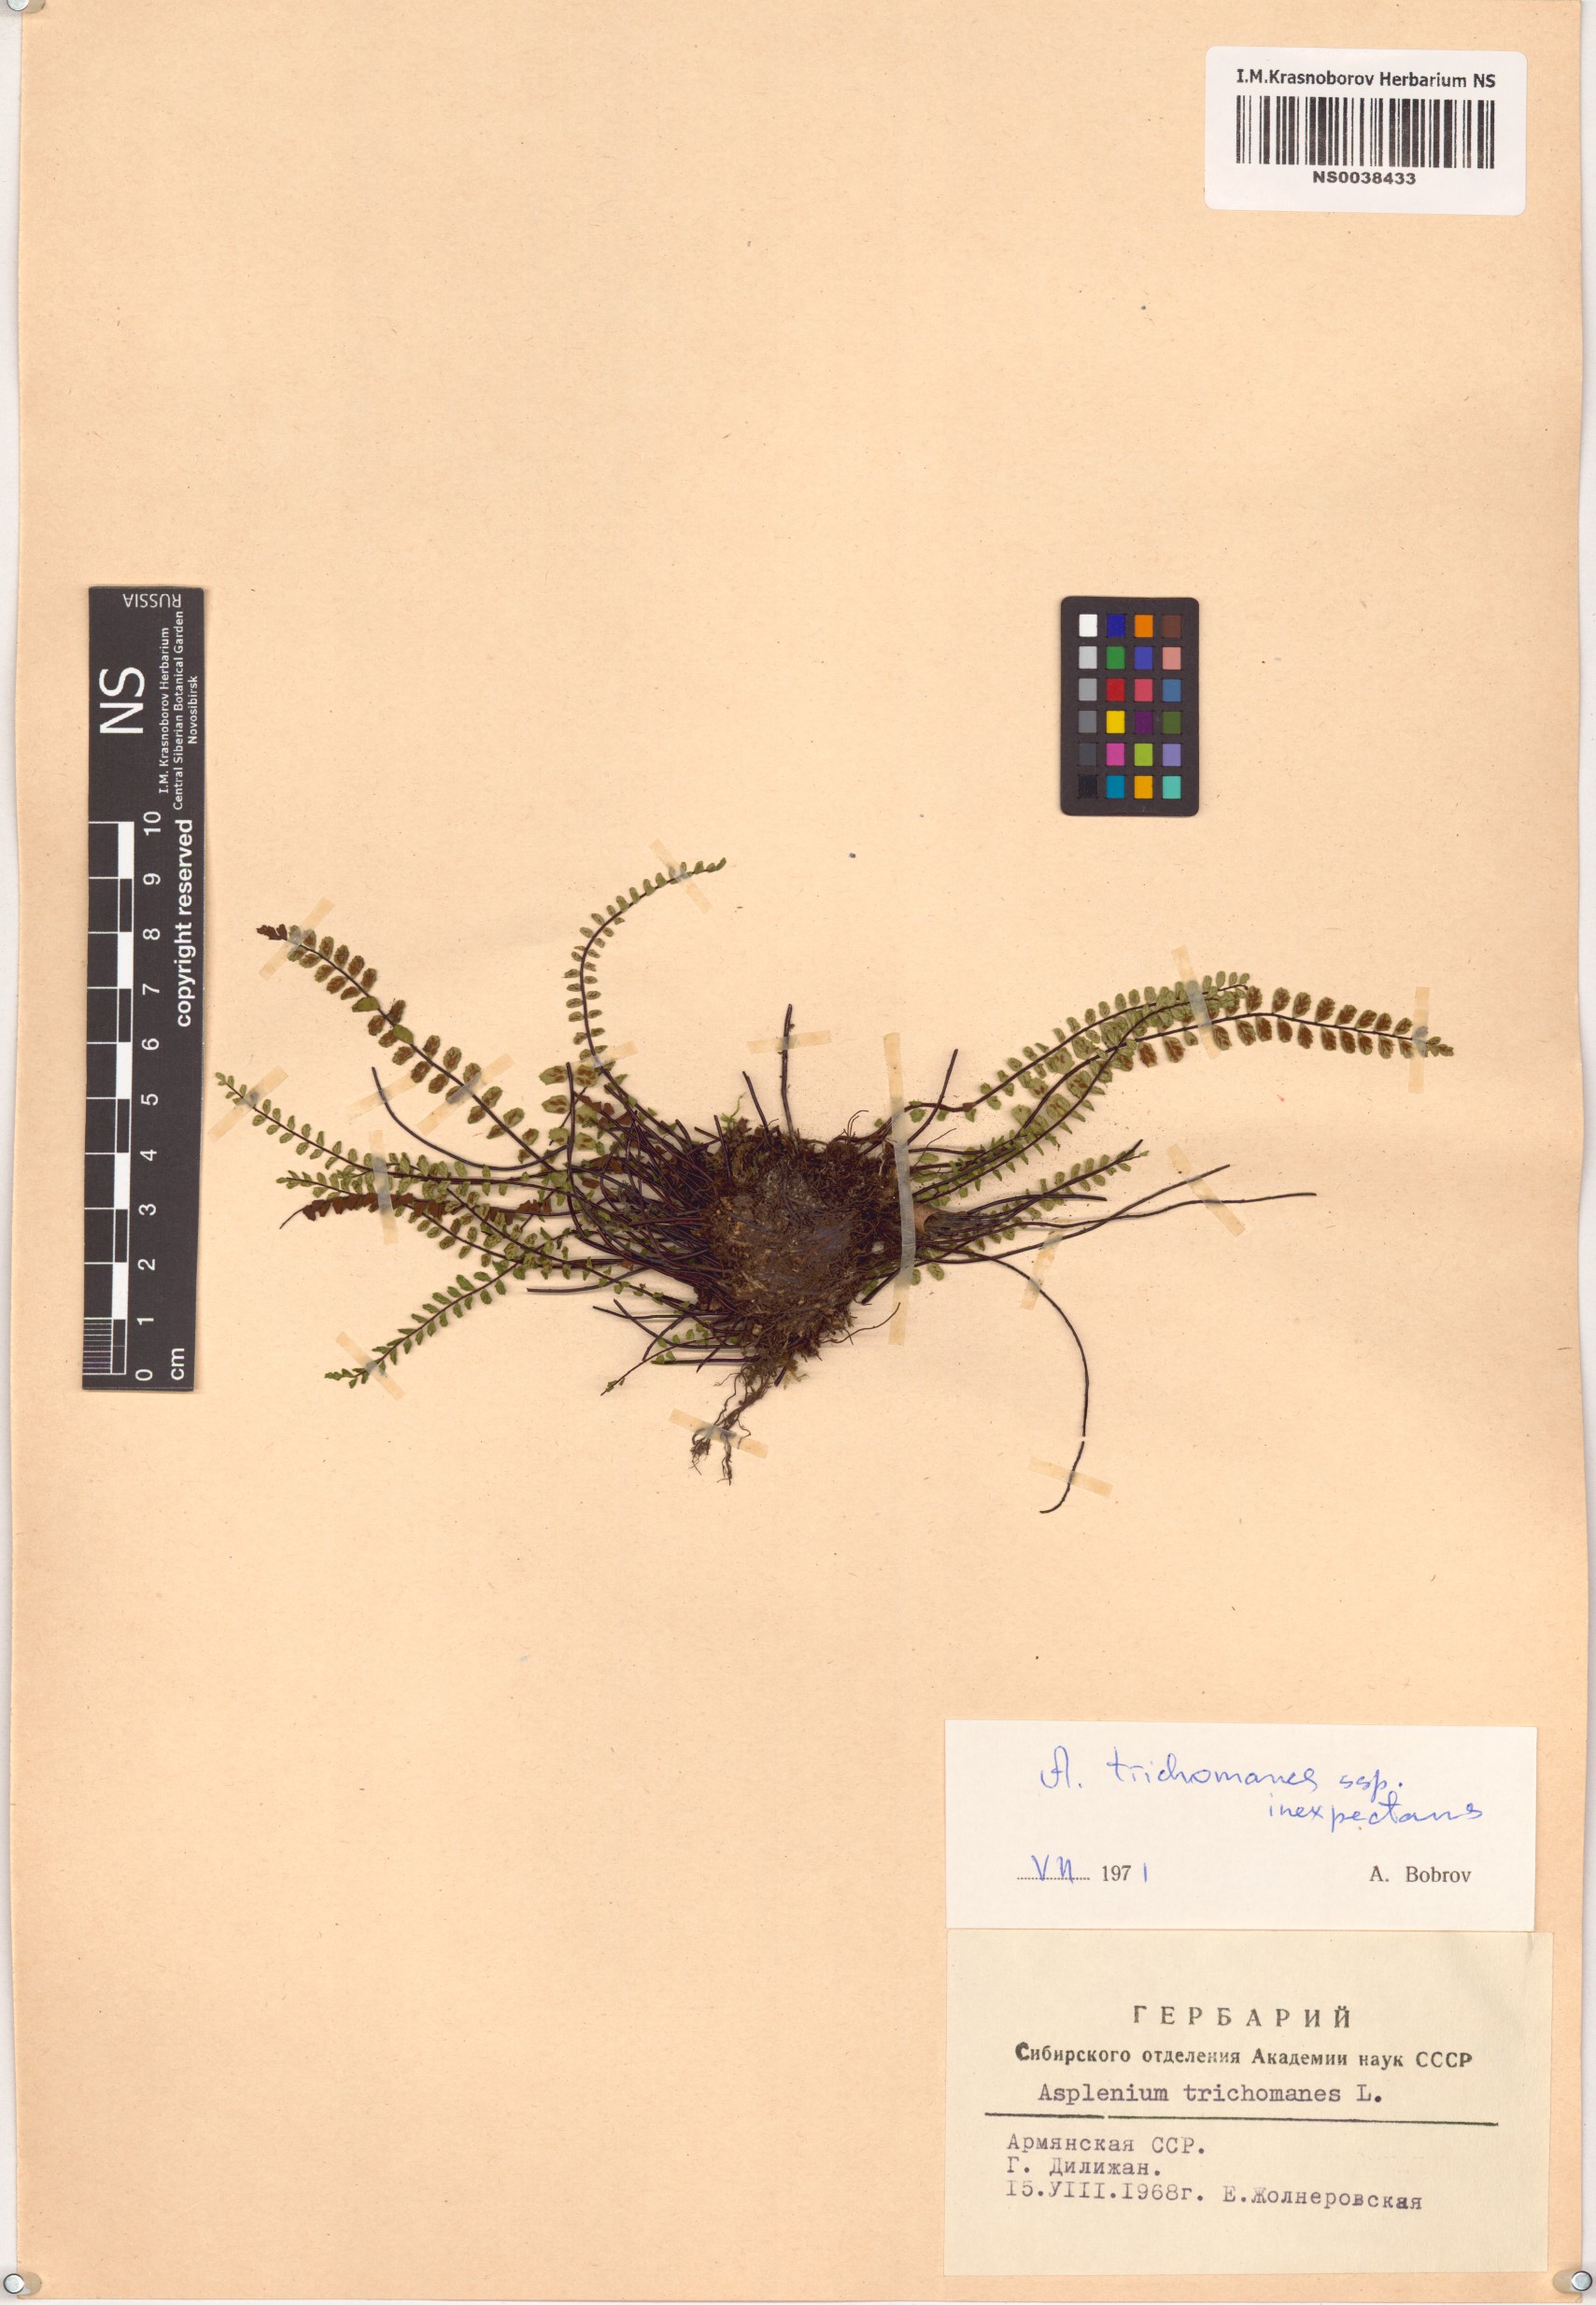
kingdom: Plantae
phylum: Tracheophyta
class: Polypodiopsida
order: Polypodiales
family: Aspleniaceae
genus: Asplenium
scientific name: Asplenium trichomanes
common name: Maidenhair spleenwort
